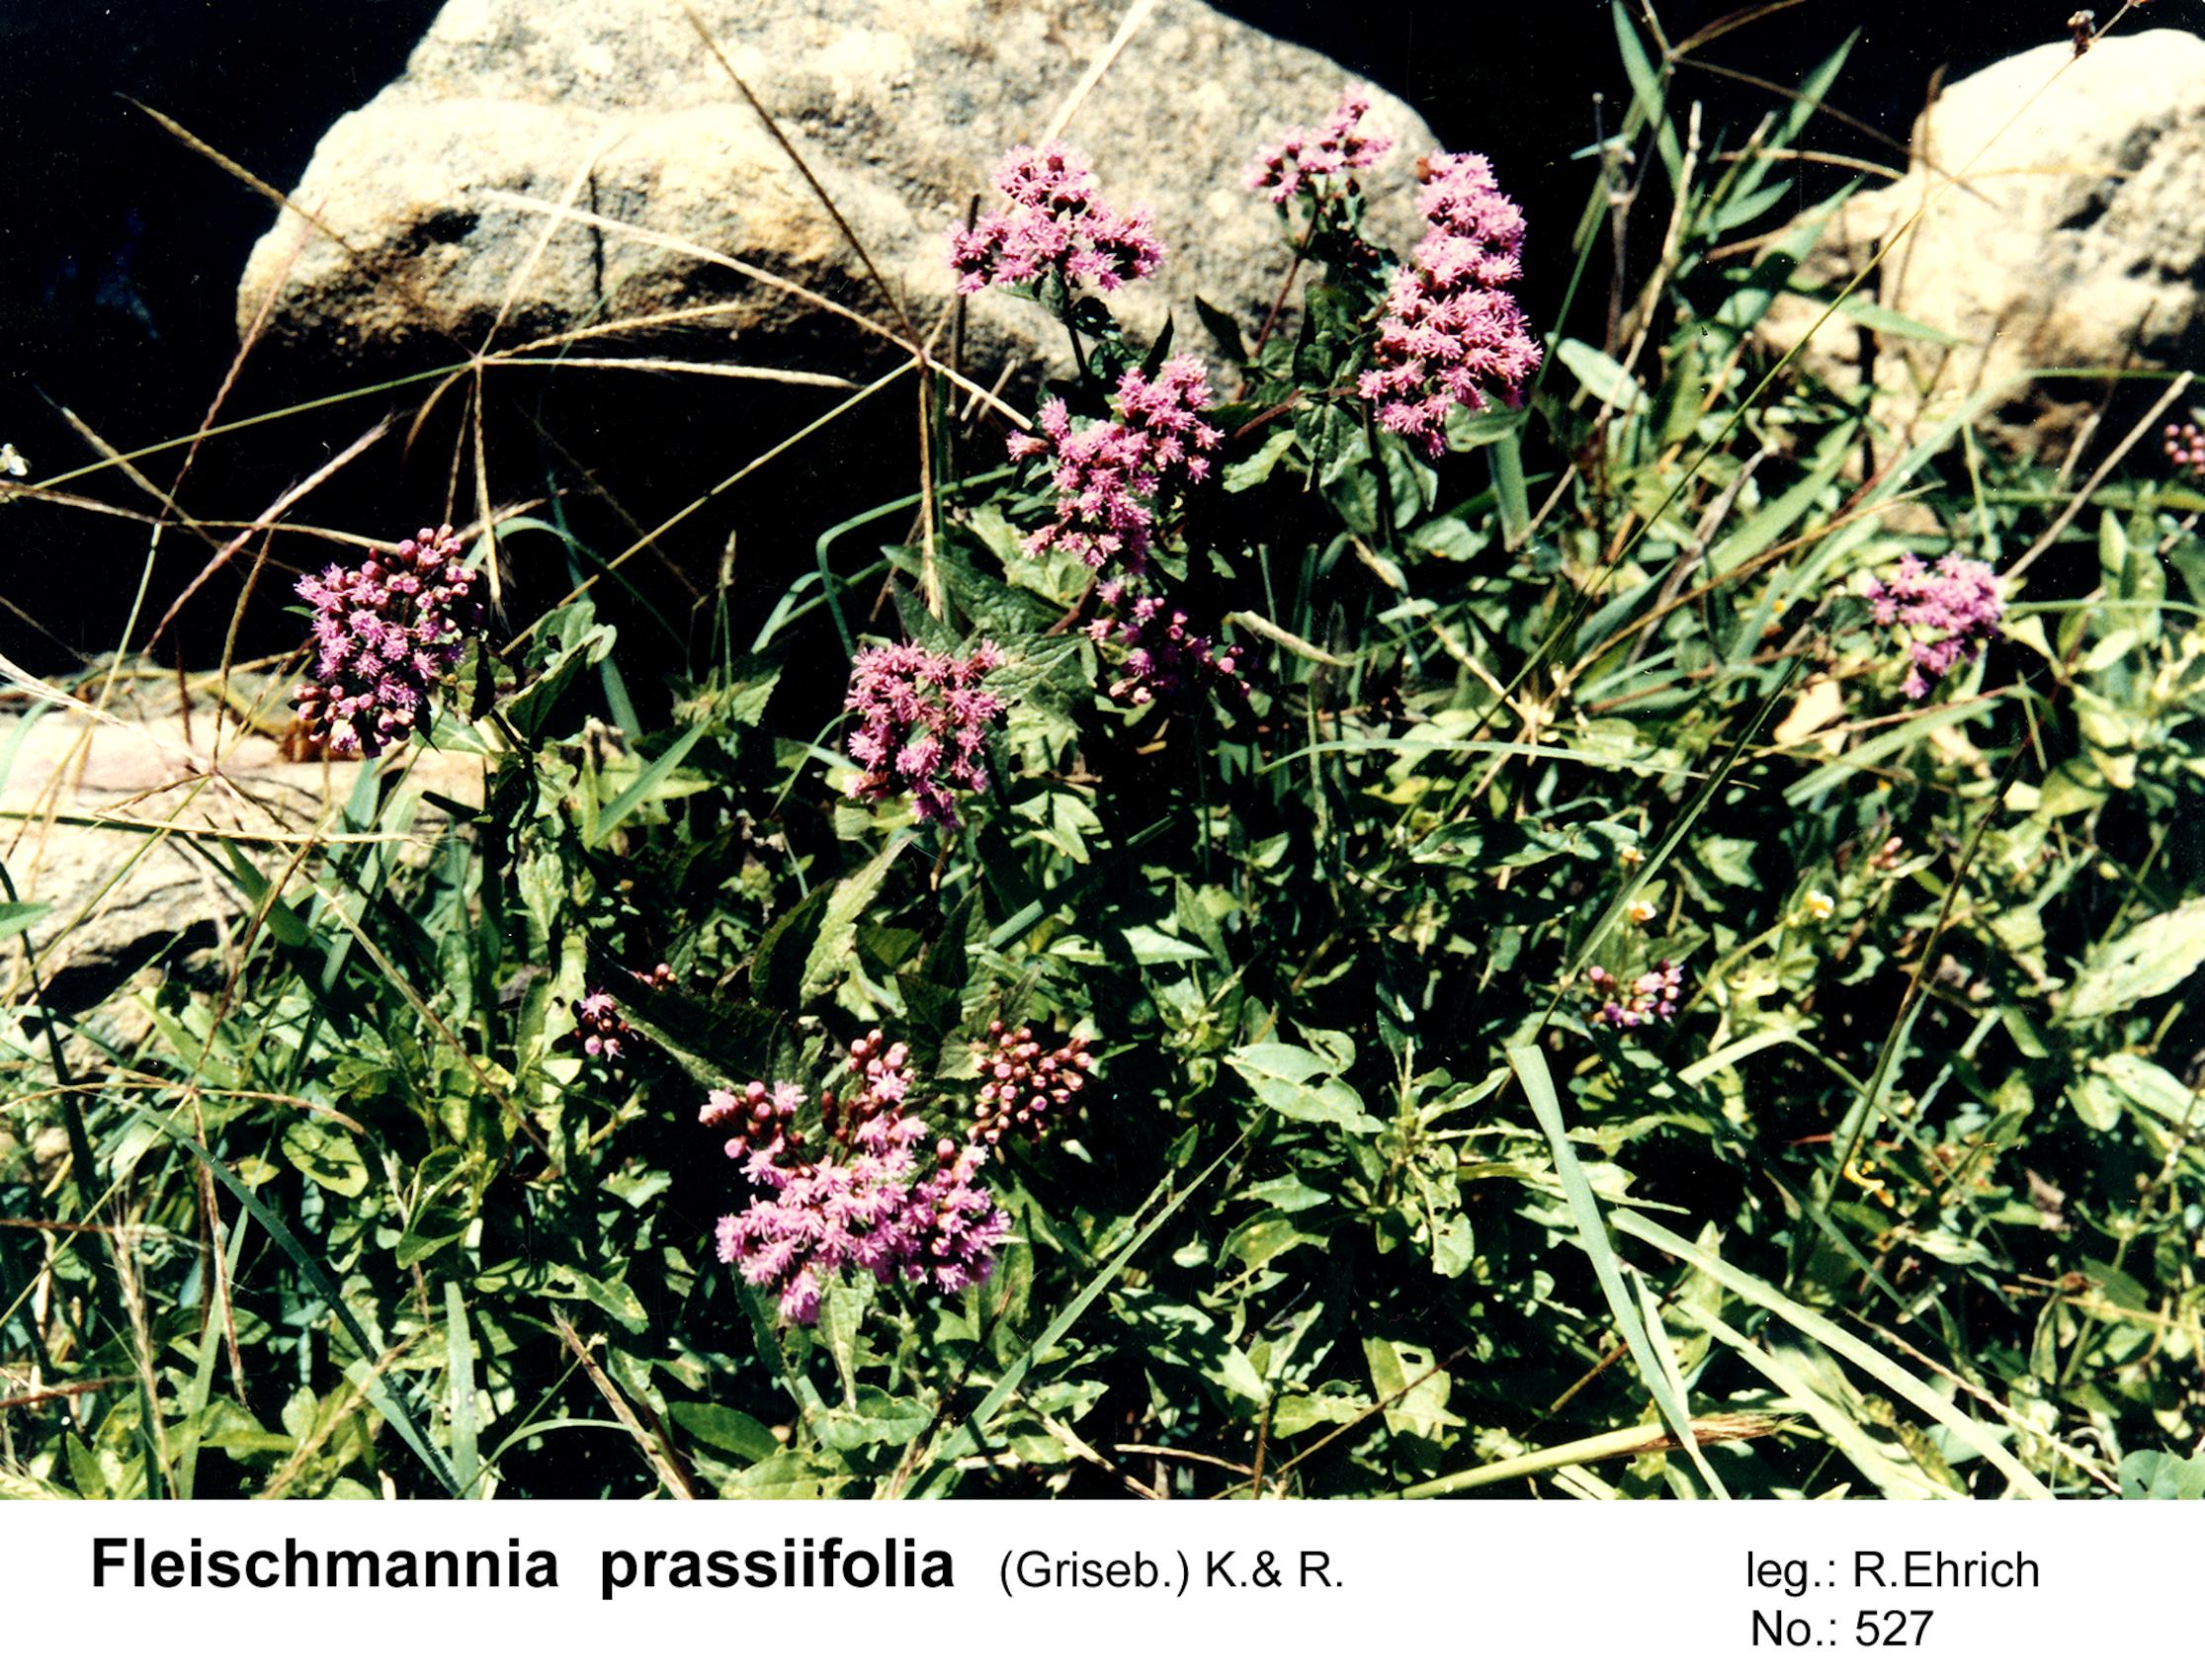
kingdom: Plantae
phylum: Tracheophyta
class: Magnoliopsida
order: Asterales
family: Asteraceae
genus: Fleischmannia
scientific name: Fleischmannia prasiifolia
